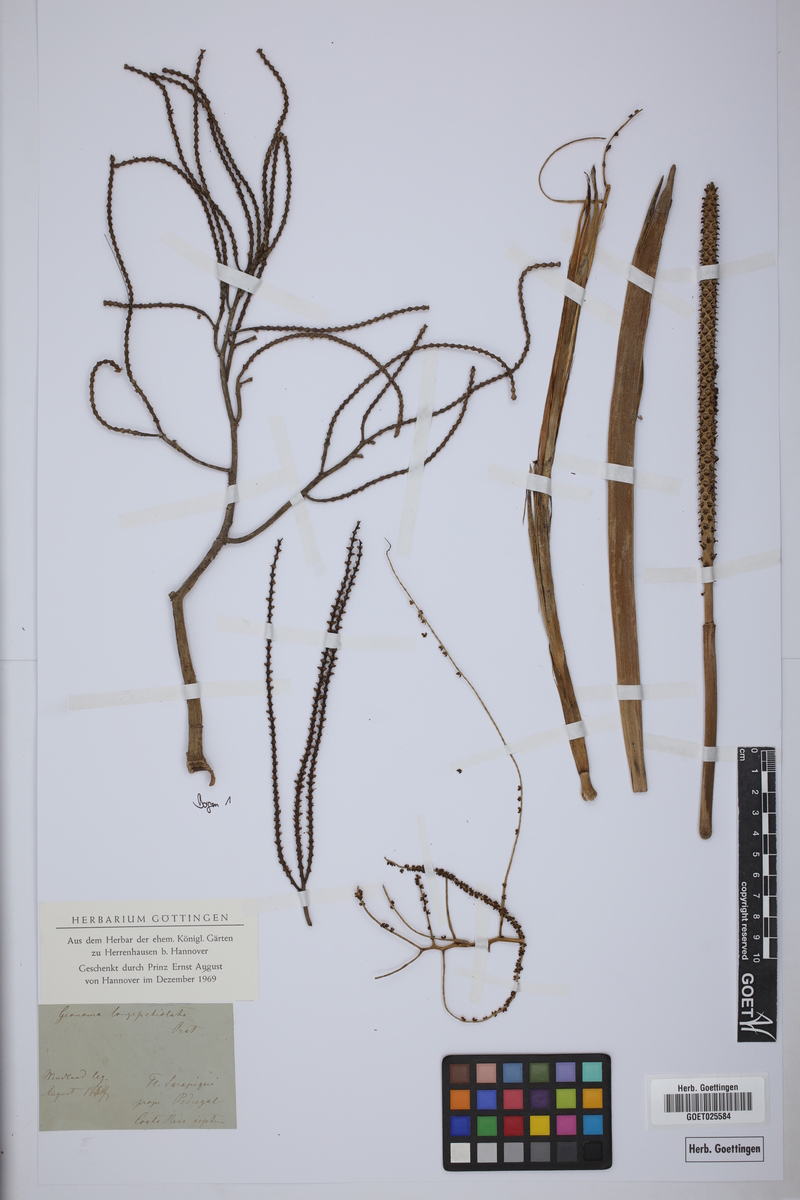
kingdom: Plantae
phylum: Tracheophyta
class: Liliopsida
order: Arecales
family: Arecaceae
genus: Geonoma
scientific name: Geonoma deversa
